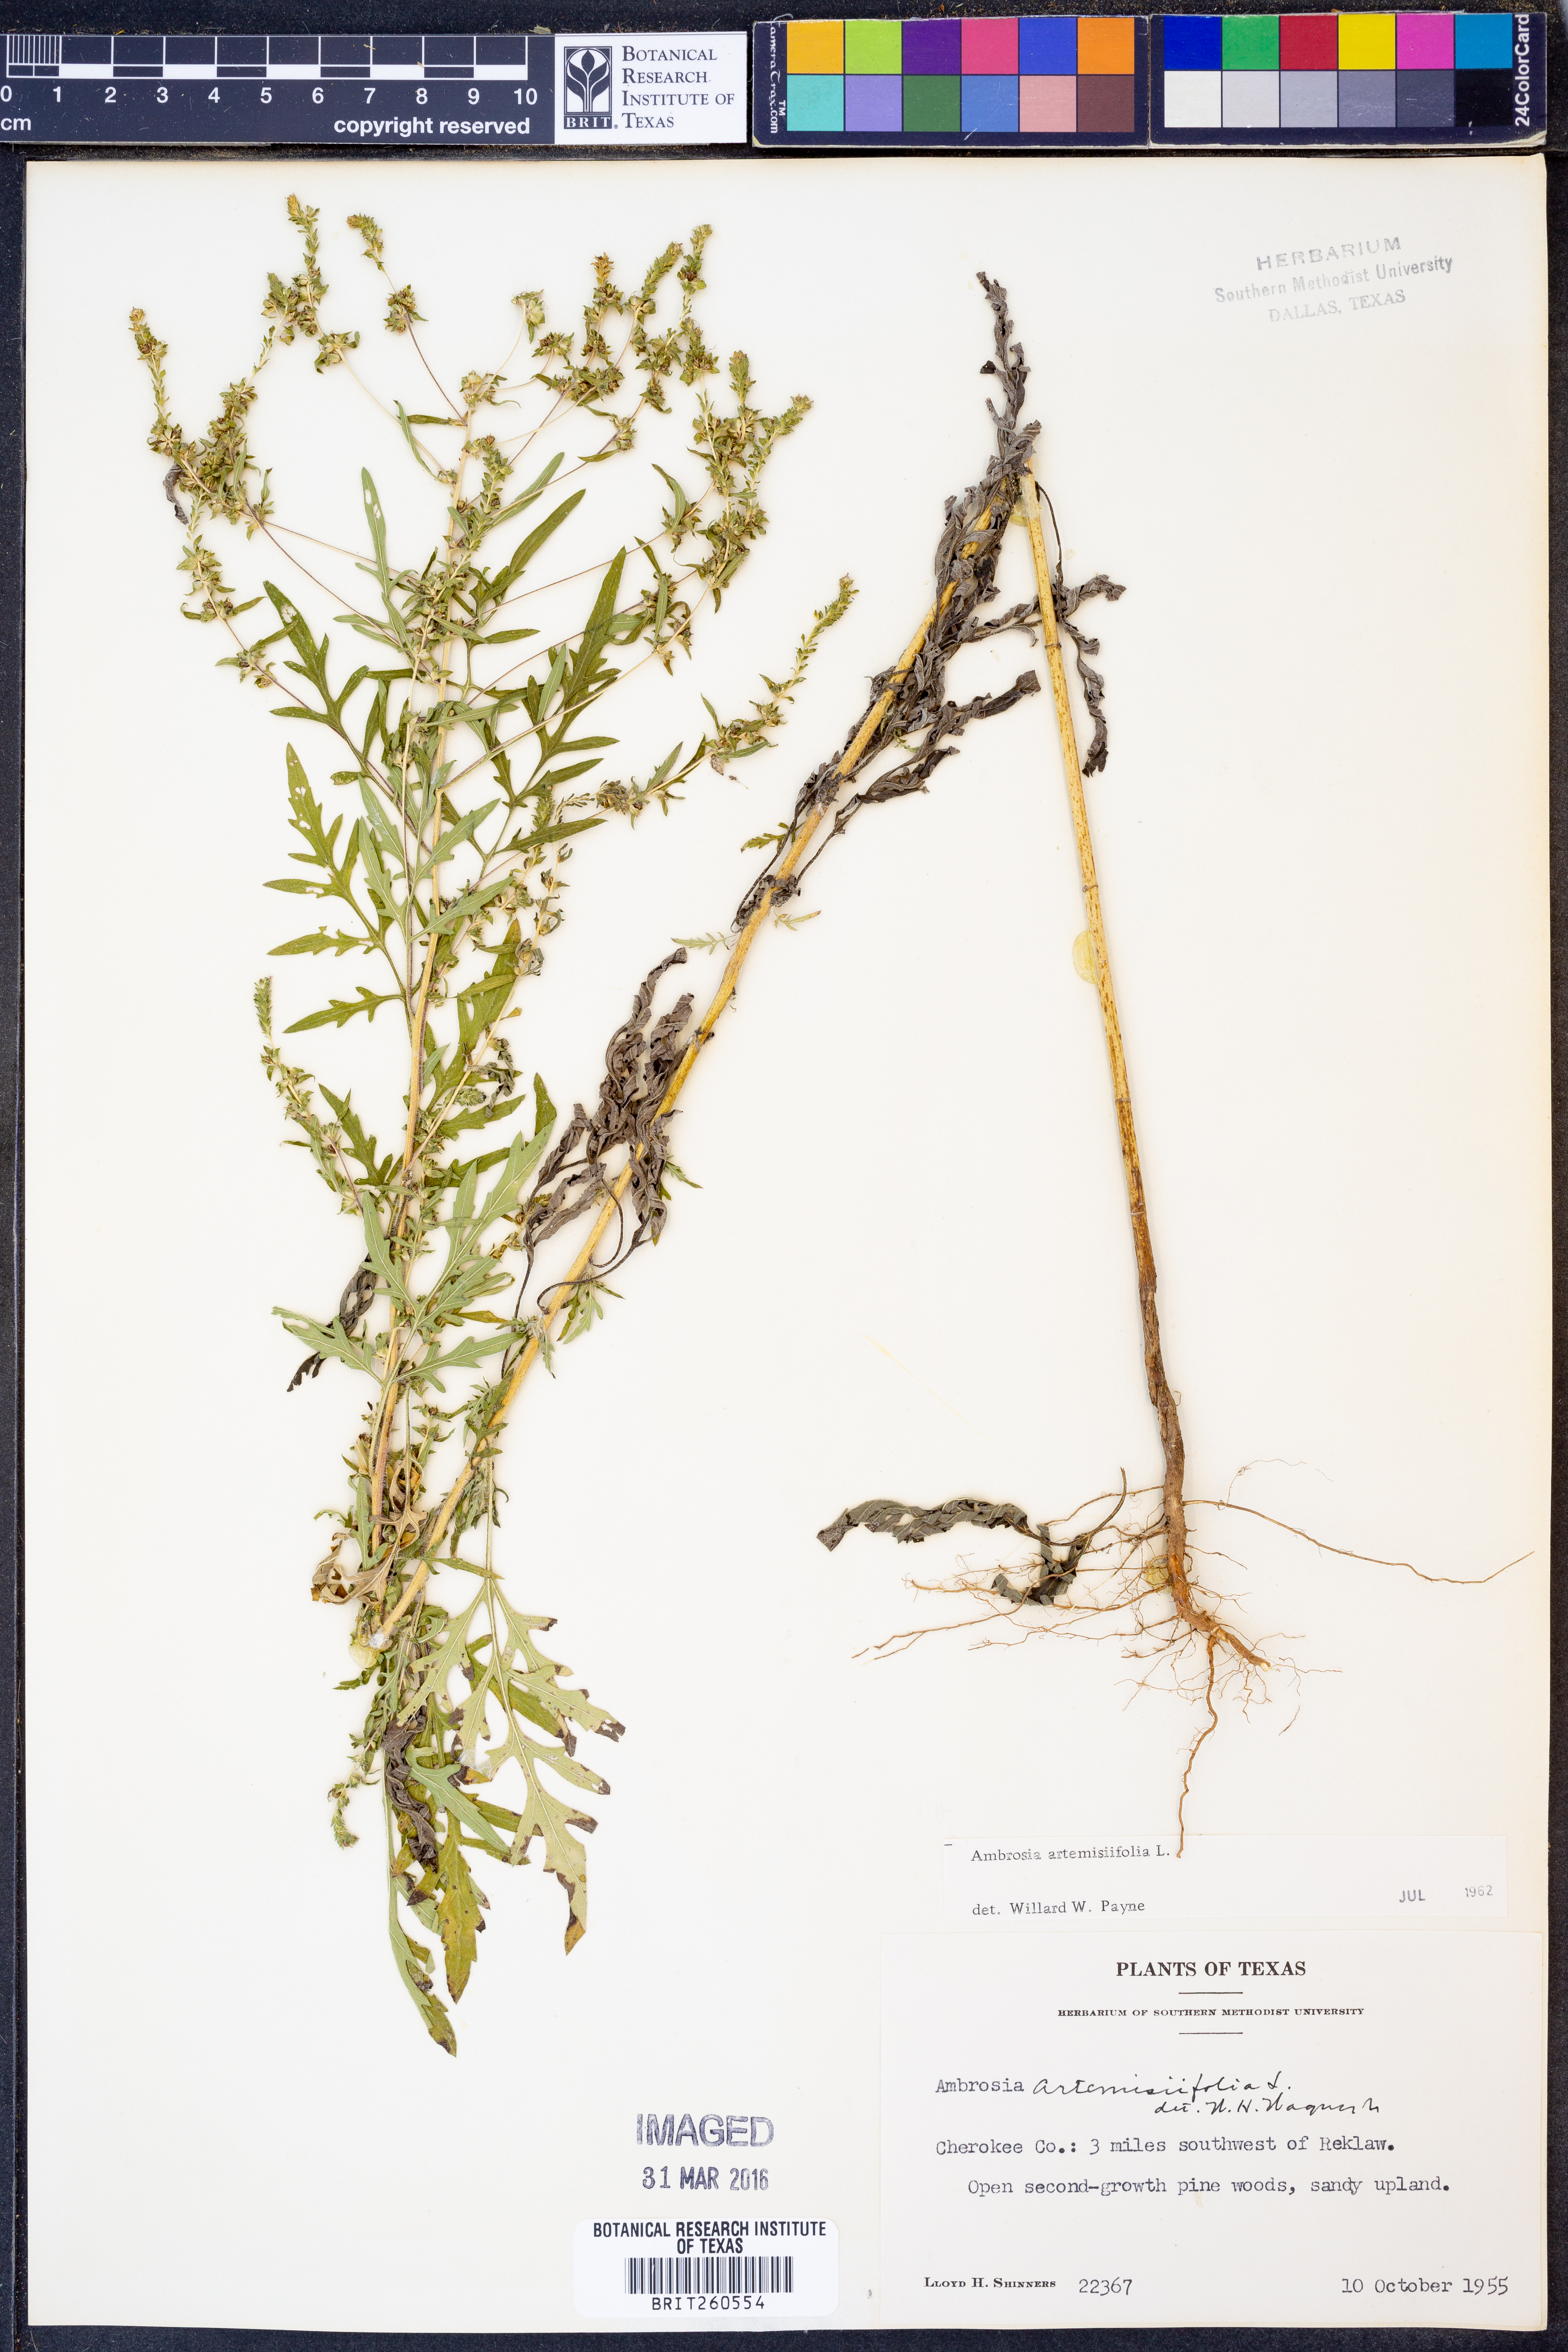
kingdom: Plantae
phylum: Tracheophyta
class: Magnoliopsida
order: Asterales
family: Asteraceae
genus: Ambrosia
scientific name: Ambrosia artemisiifolia
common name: Annual ragweed
